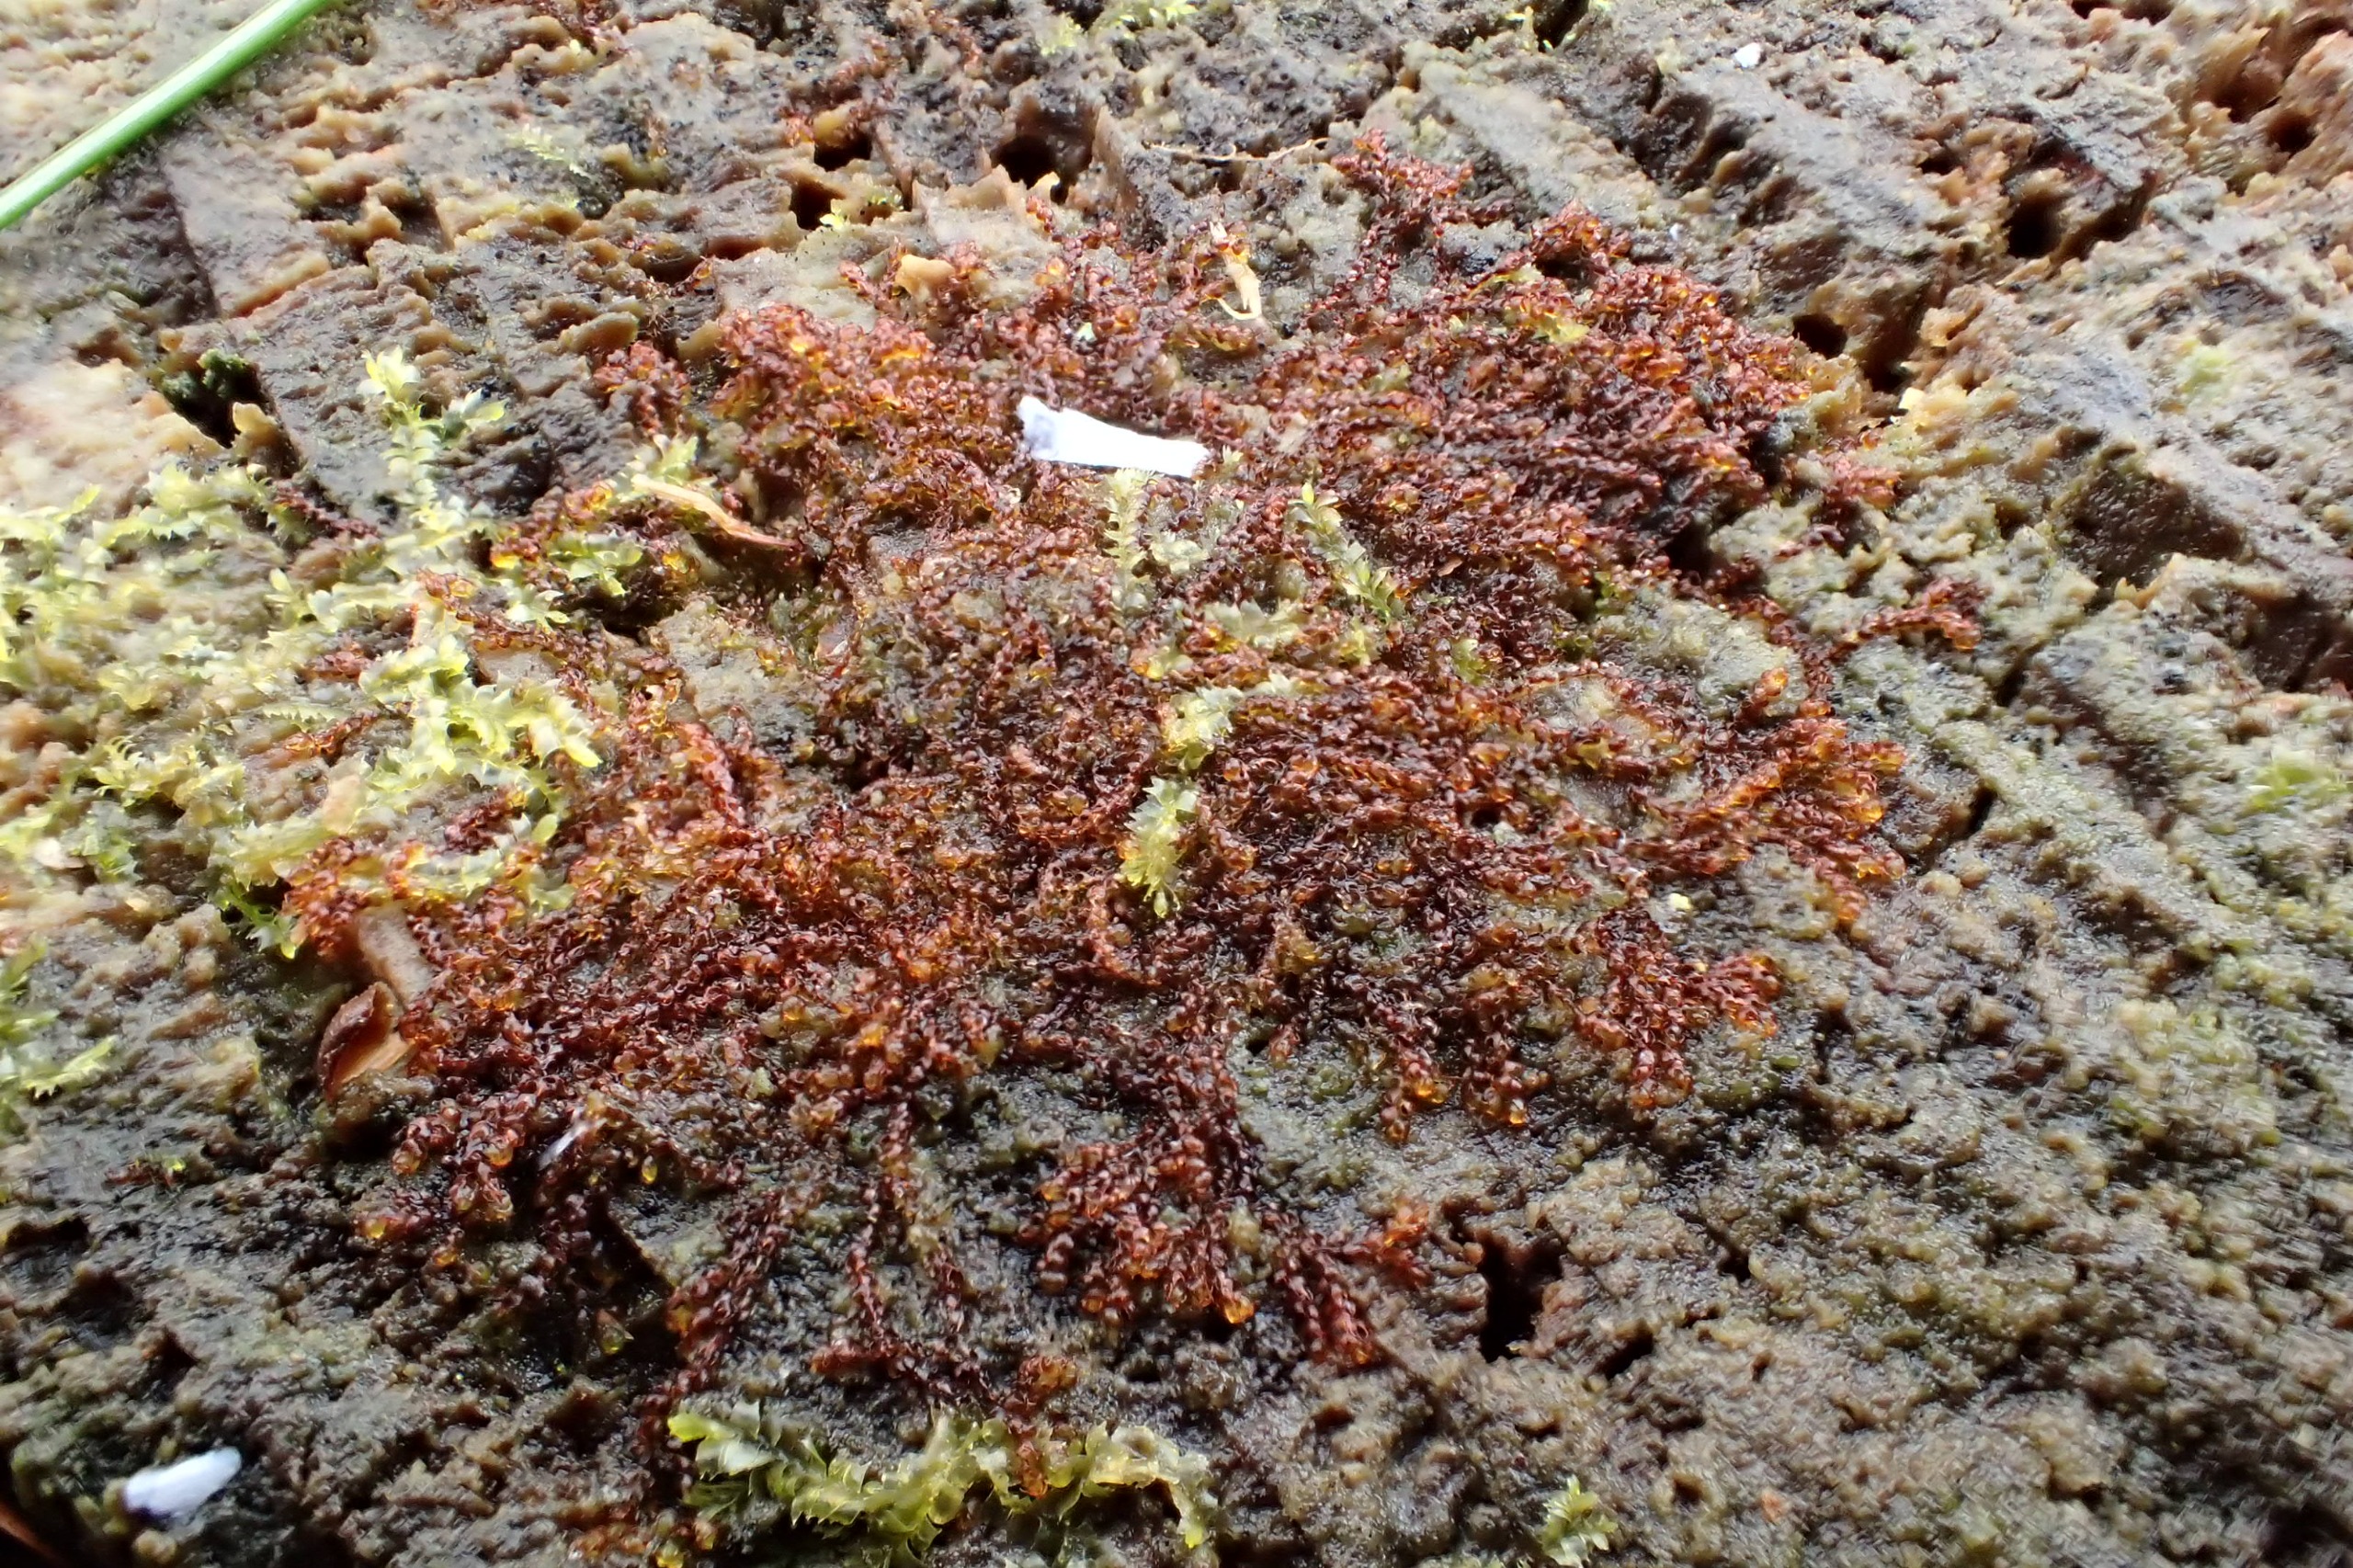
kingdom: Plantae
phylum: Marchantiophyta
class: Jungermanniopsida
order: Jungermanniales
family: Cephaloziaceae
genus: Nowellia
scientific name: Nowellia curvifolia
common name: Krumbladet stødmos
